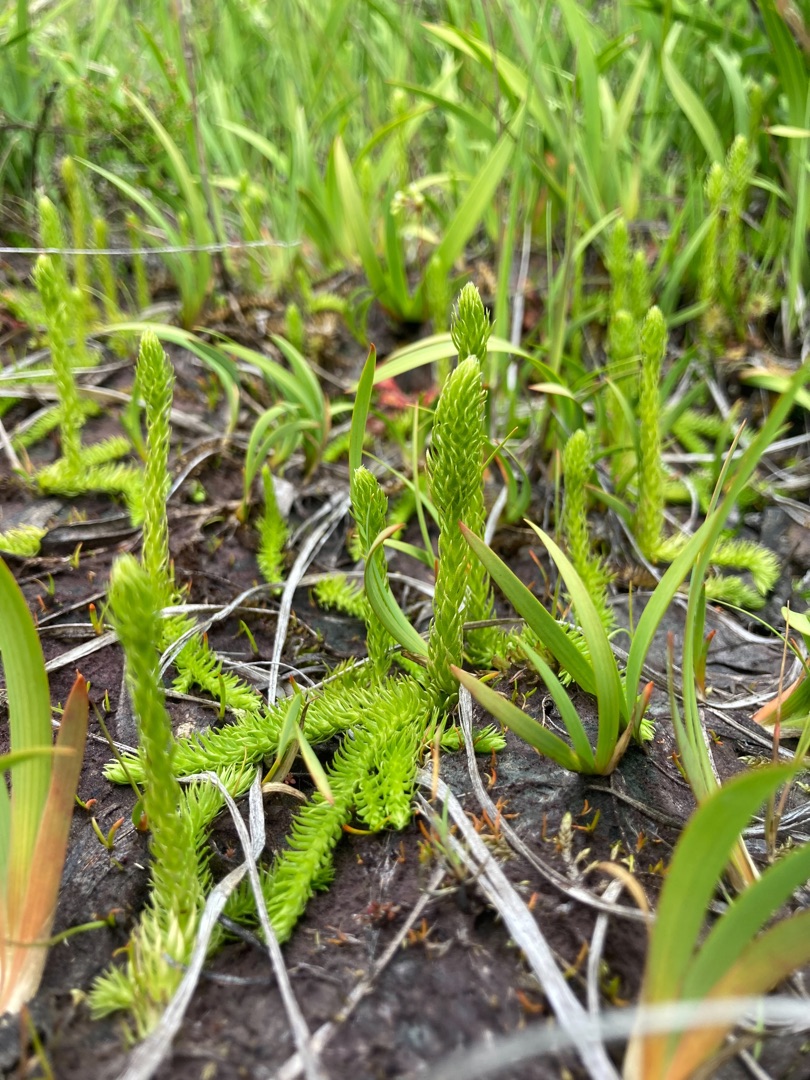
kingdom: Plantae
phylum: Tracheophyta
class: Lycopodiopsida
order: Lycopodiales
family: Lycopodiaceae
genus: Lycopodiella
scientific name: Lycopodiella inundata
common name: Liden ulvefod
